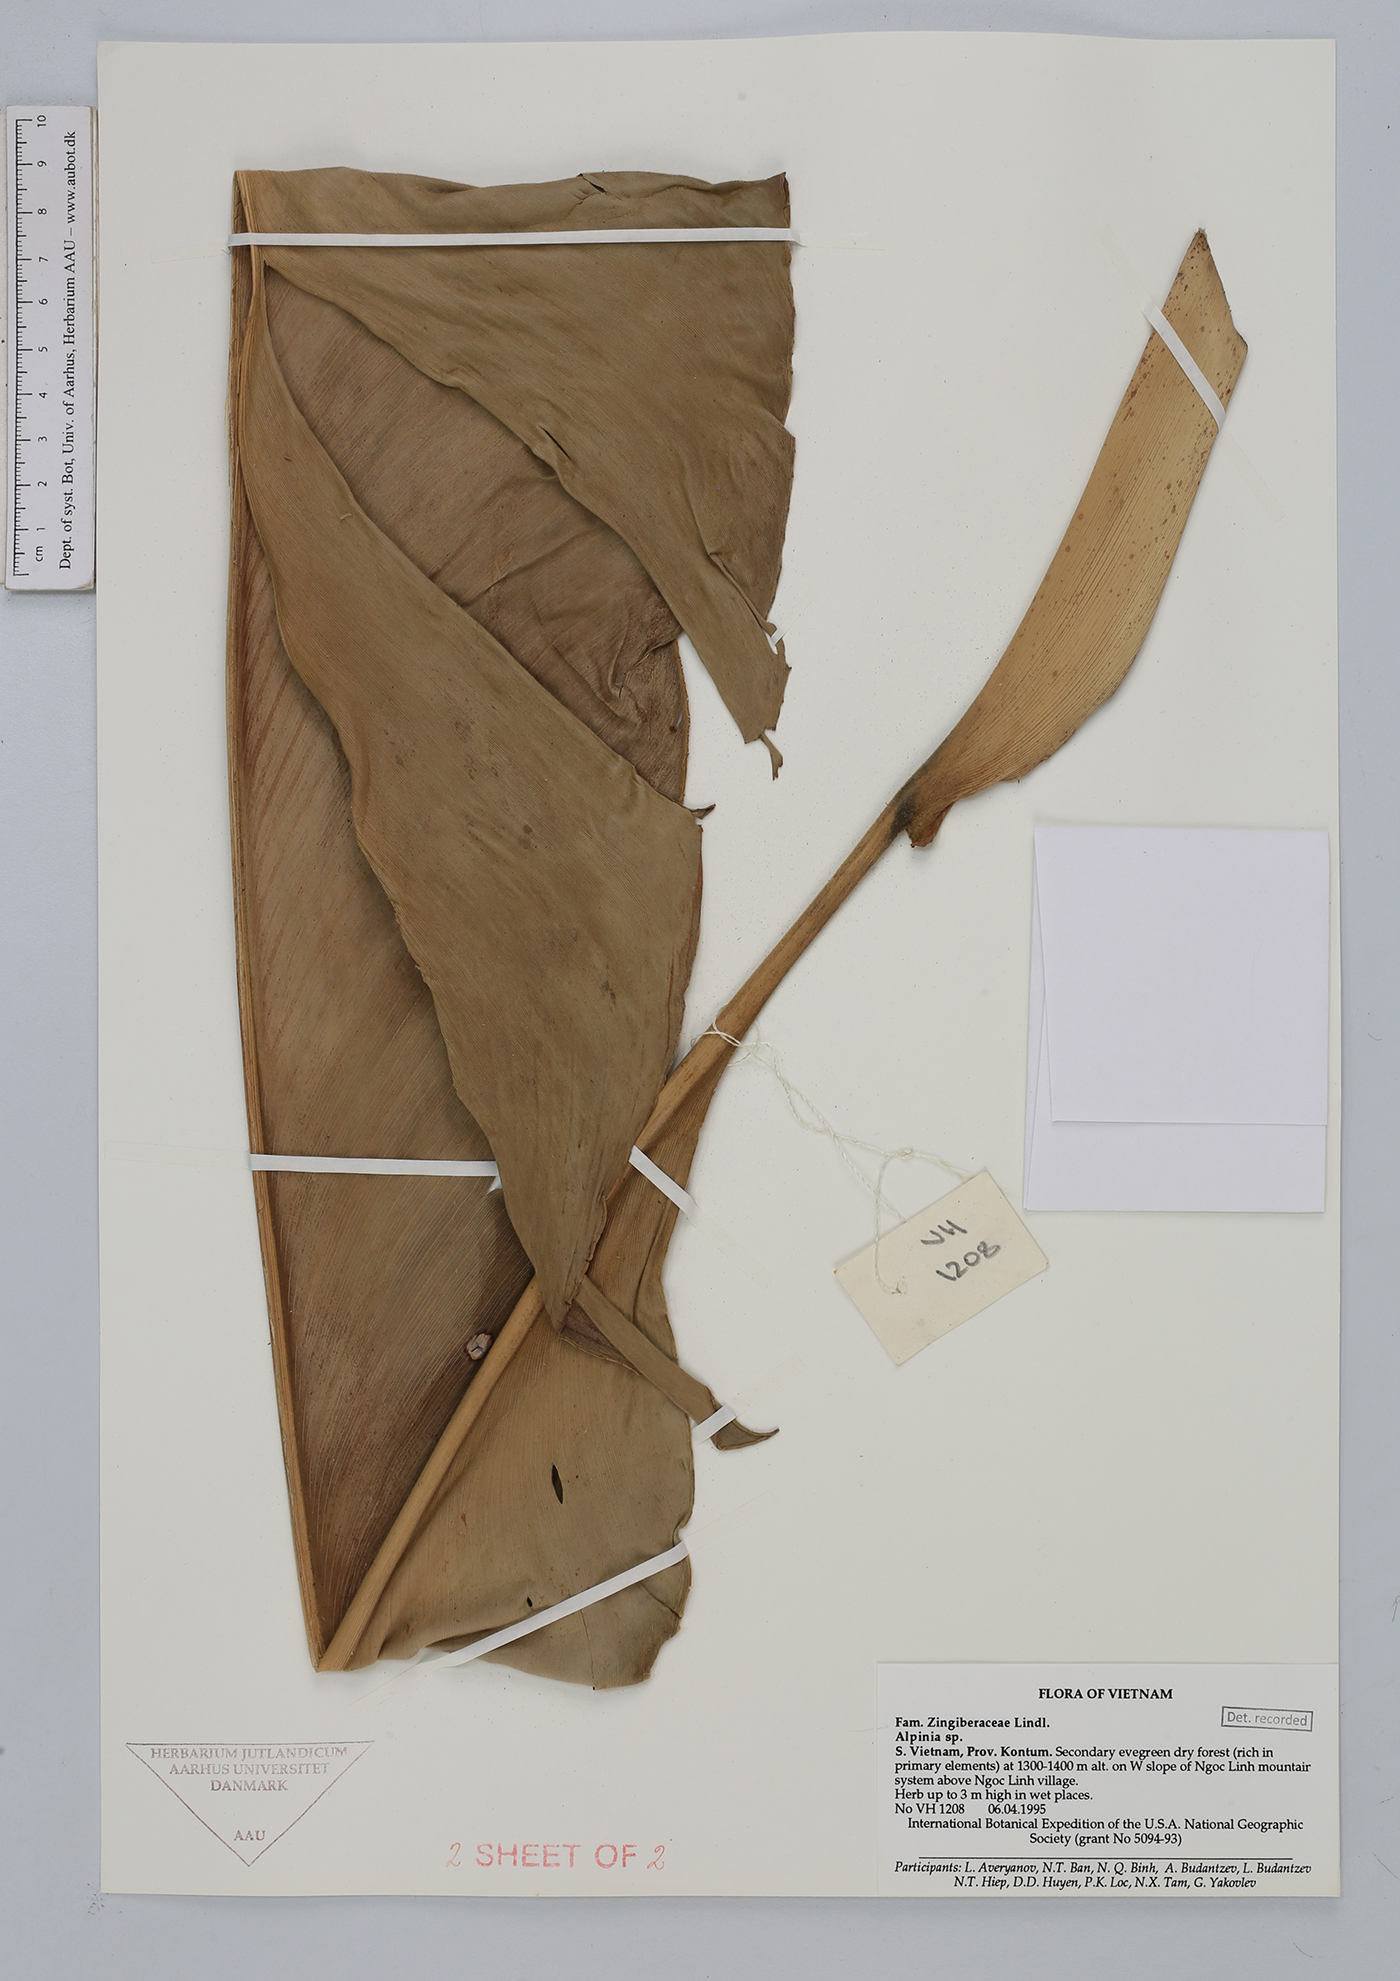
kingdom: Plantae
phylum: Tracheophyta
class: Liliopsida
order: Zingiberales
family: Zingiberaceae
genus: Alpinia
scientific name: Alpinia
